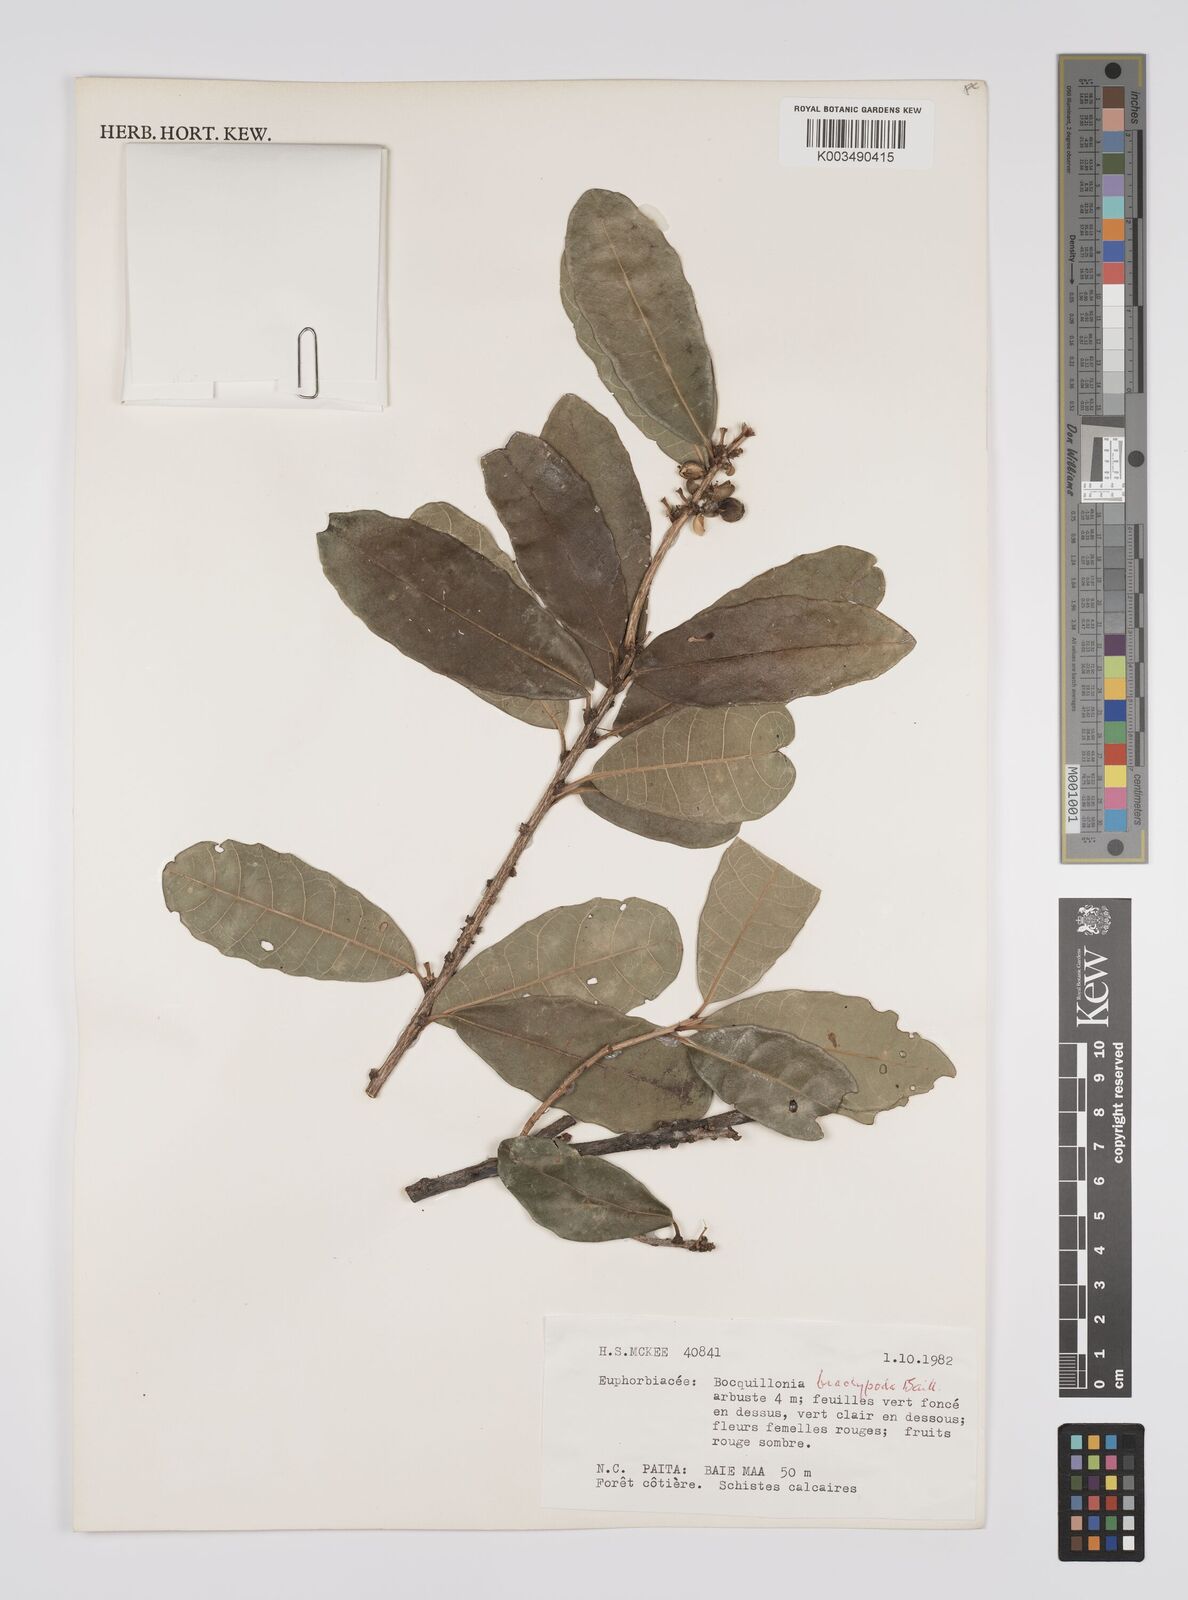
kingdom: Plantae
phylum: Tracheophyta
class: Magnoliopsida
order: Malpighiales
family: Euphorbiaceae
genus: Bocquillonia
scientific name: Bocquillonia brachypoda
